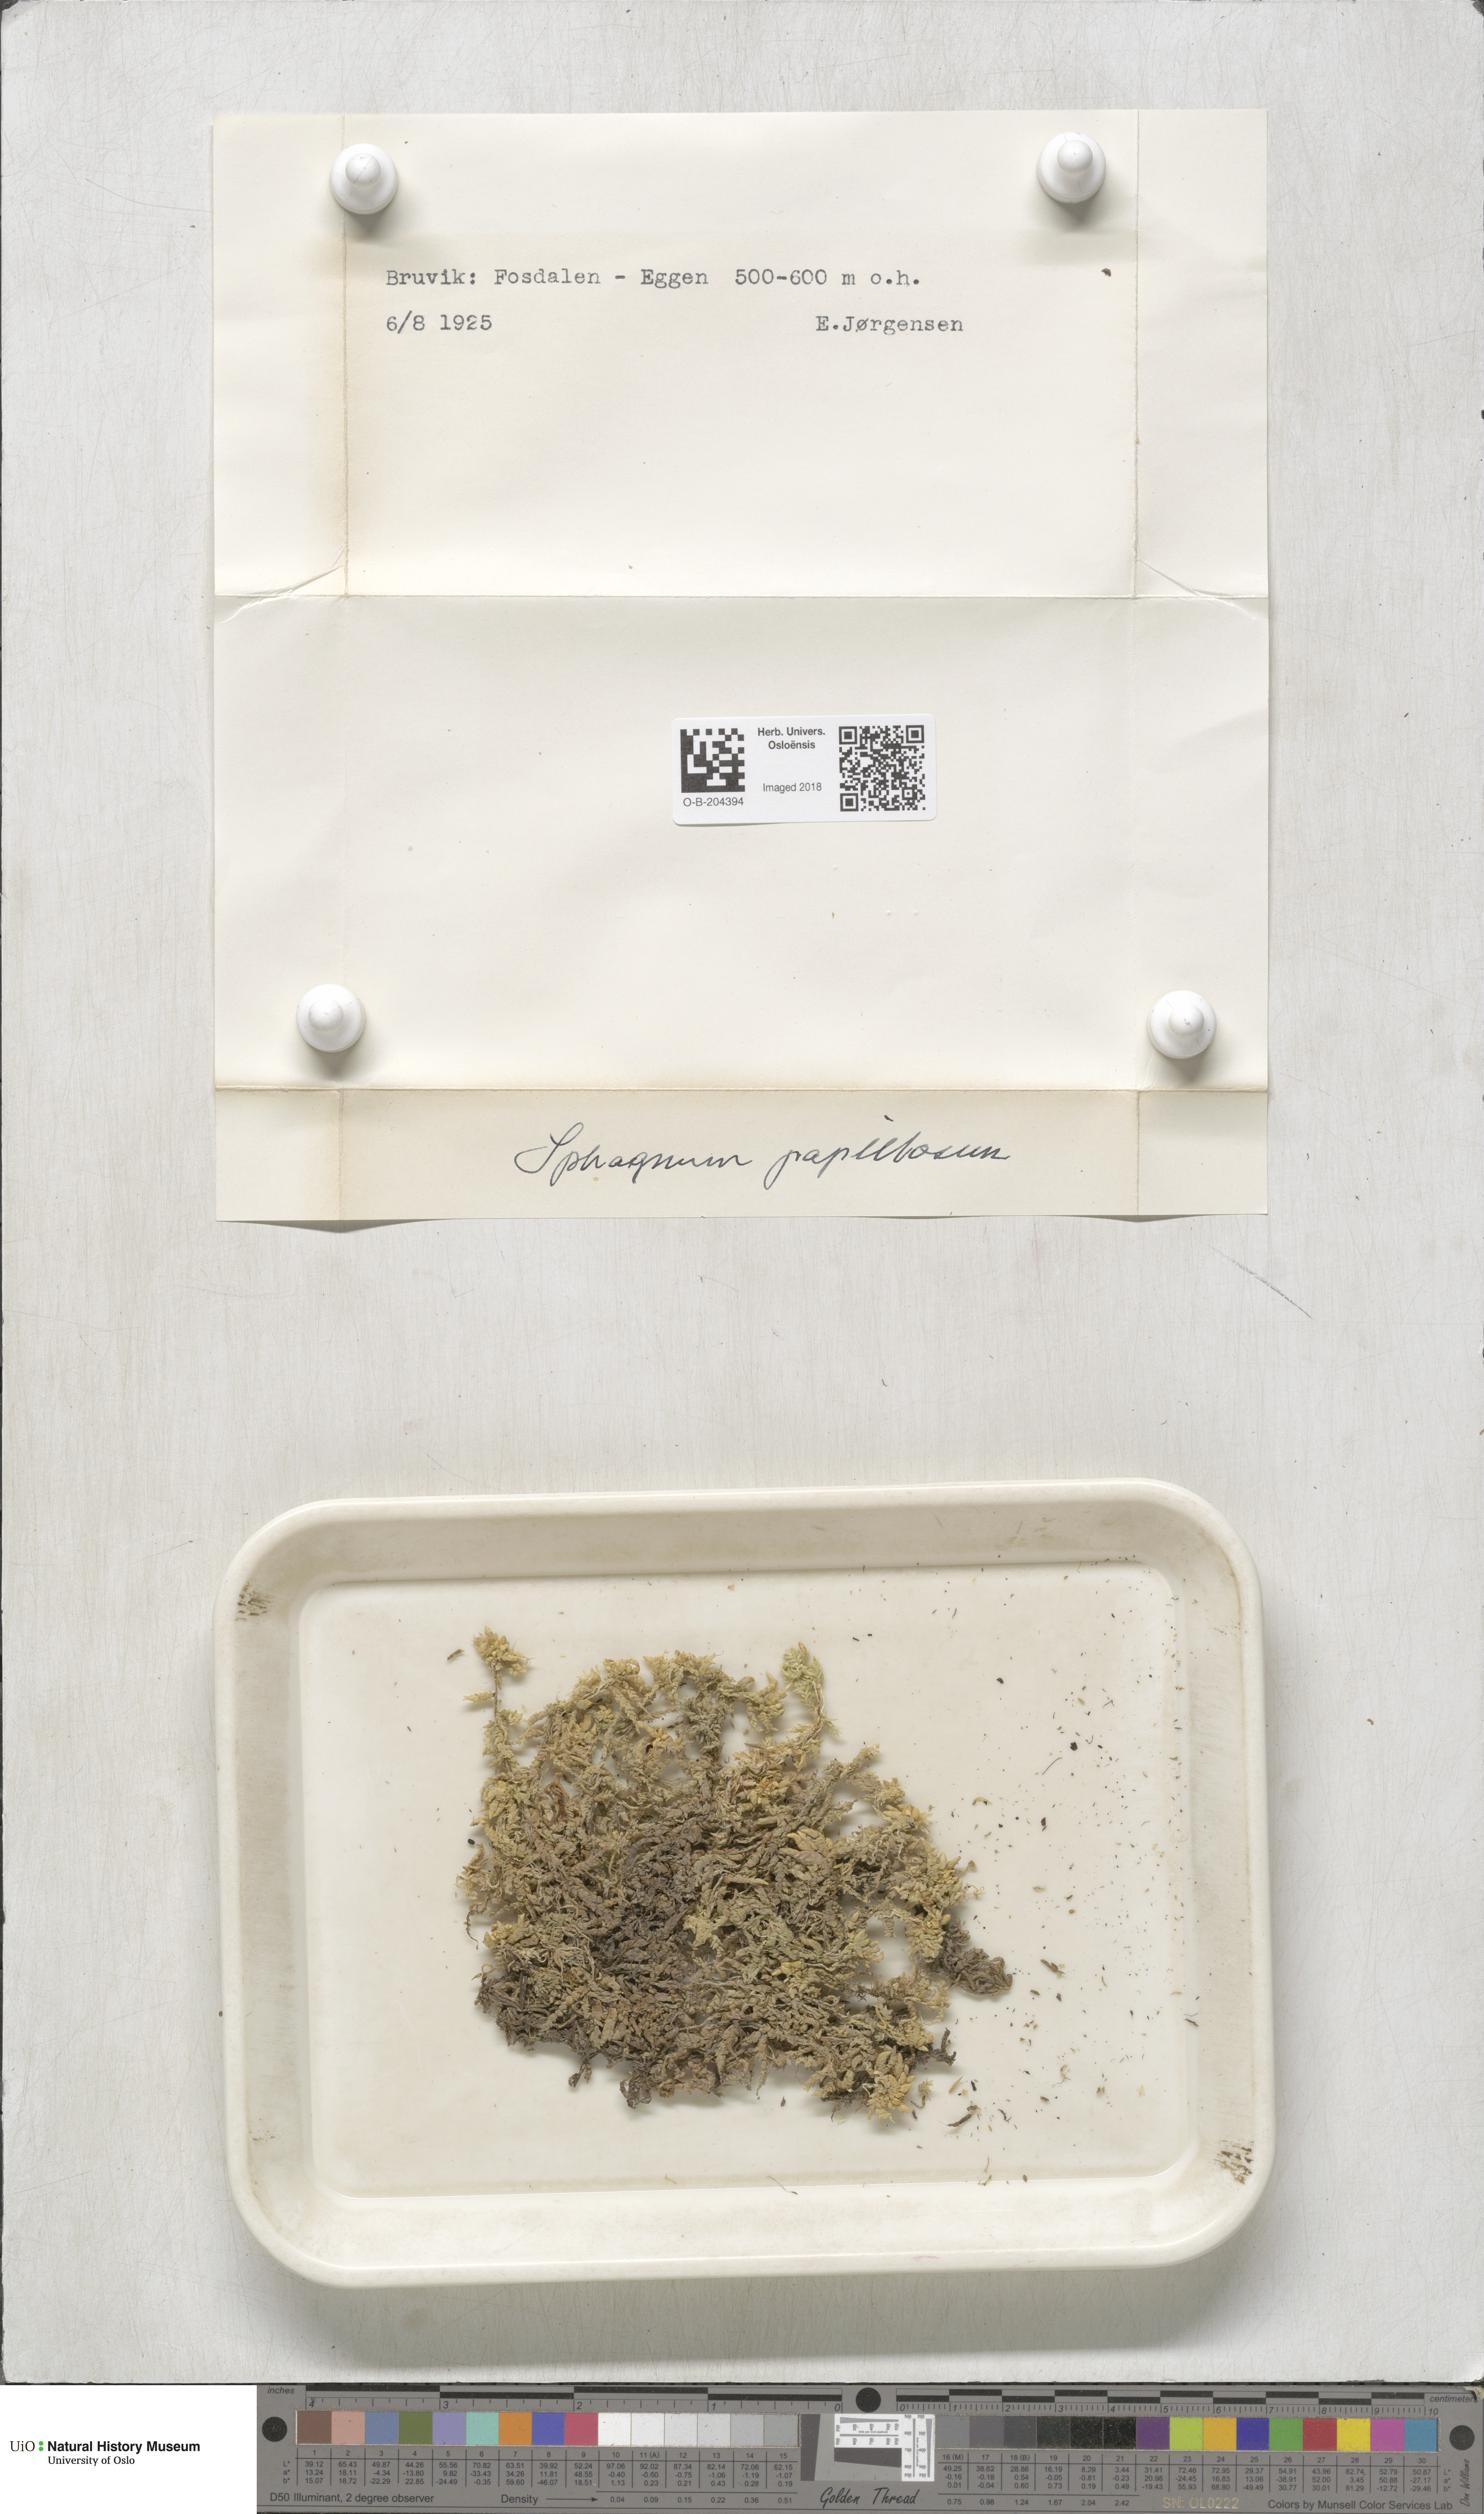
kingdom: Plantae
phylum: Bryophyta
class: Sphagnopsida
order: Sphagnales
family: Sphagnaceae
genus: Sphagnum
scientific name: Sphagnum papillosum
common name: Papillose peat moss
